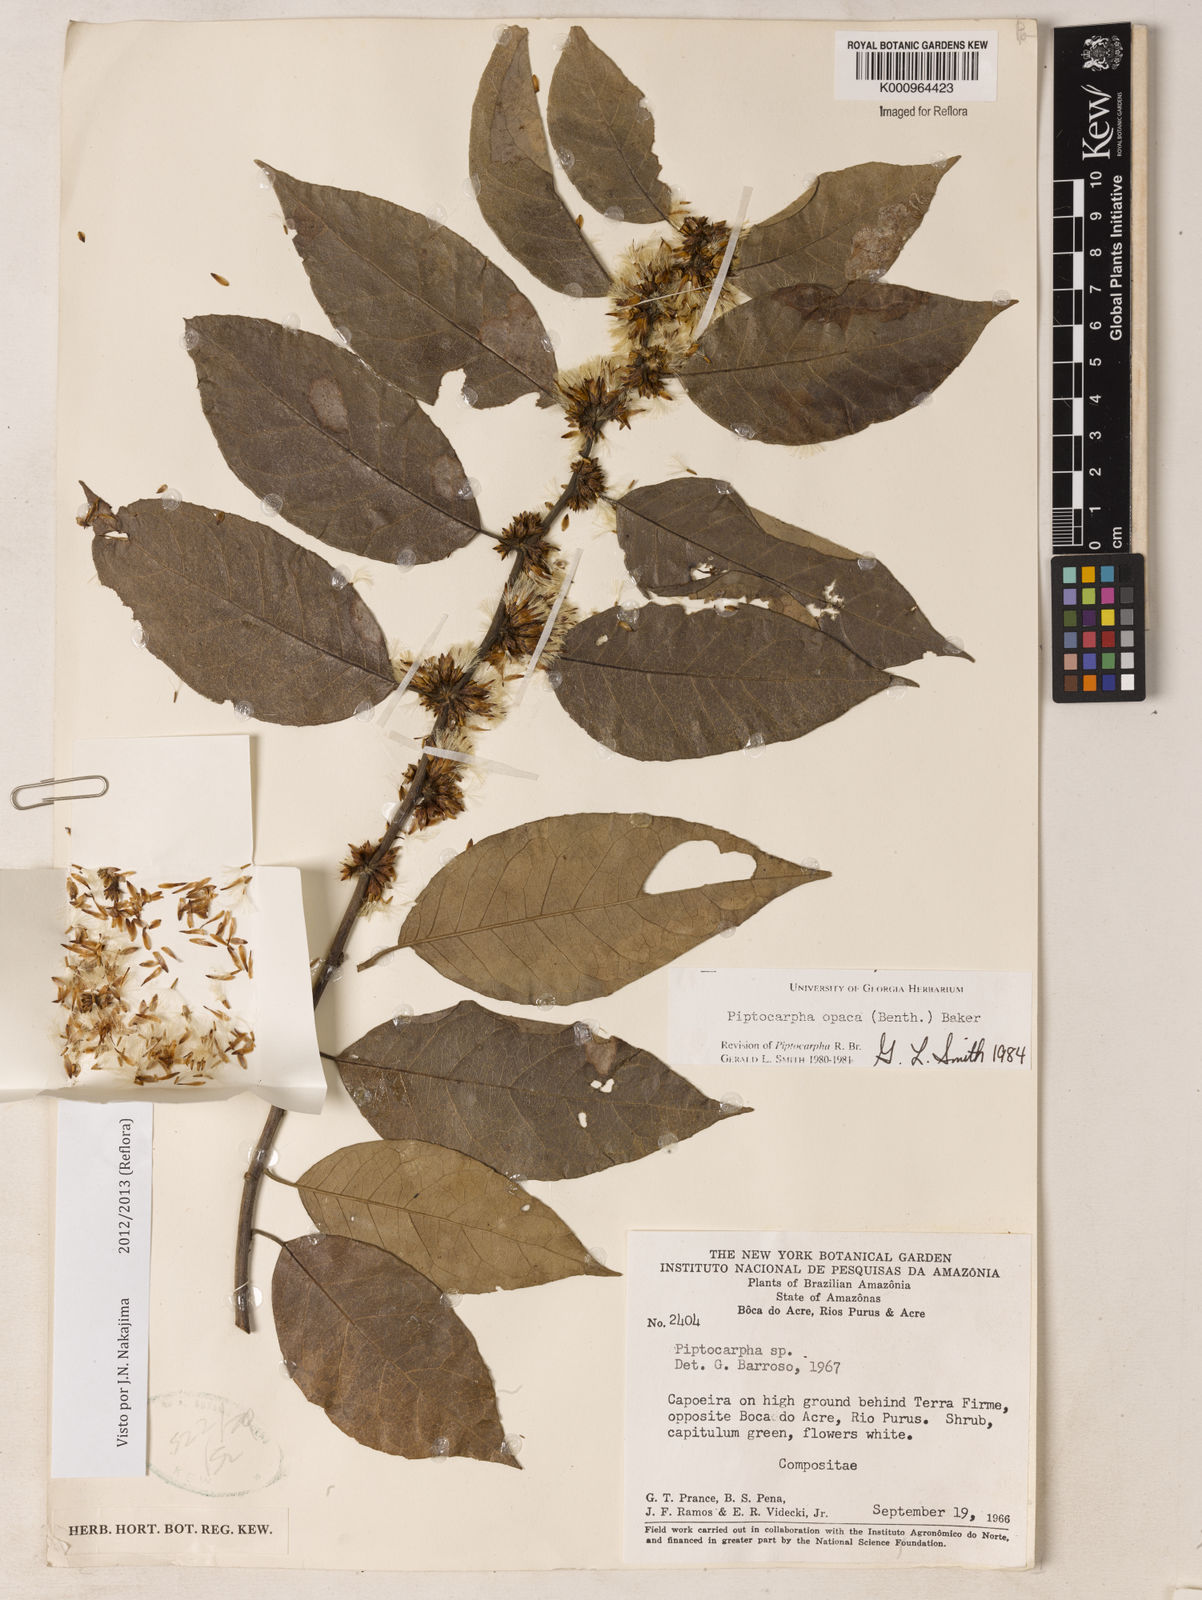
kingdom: Plantae
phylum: Tracheophyta
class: Magnoliopsida
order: Asterales
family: Asteraceae
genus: Piptocarpha
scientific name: Piptocarpha opaca
